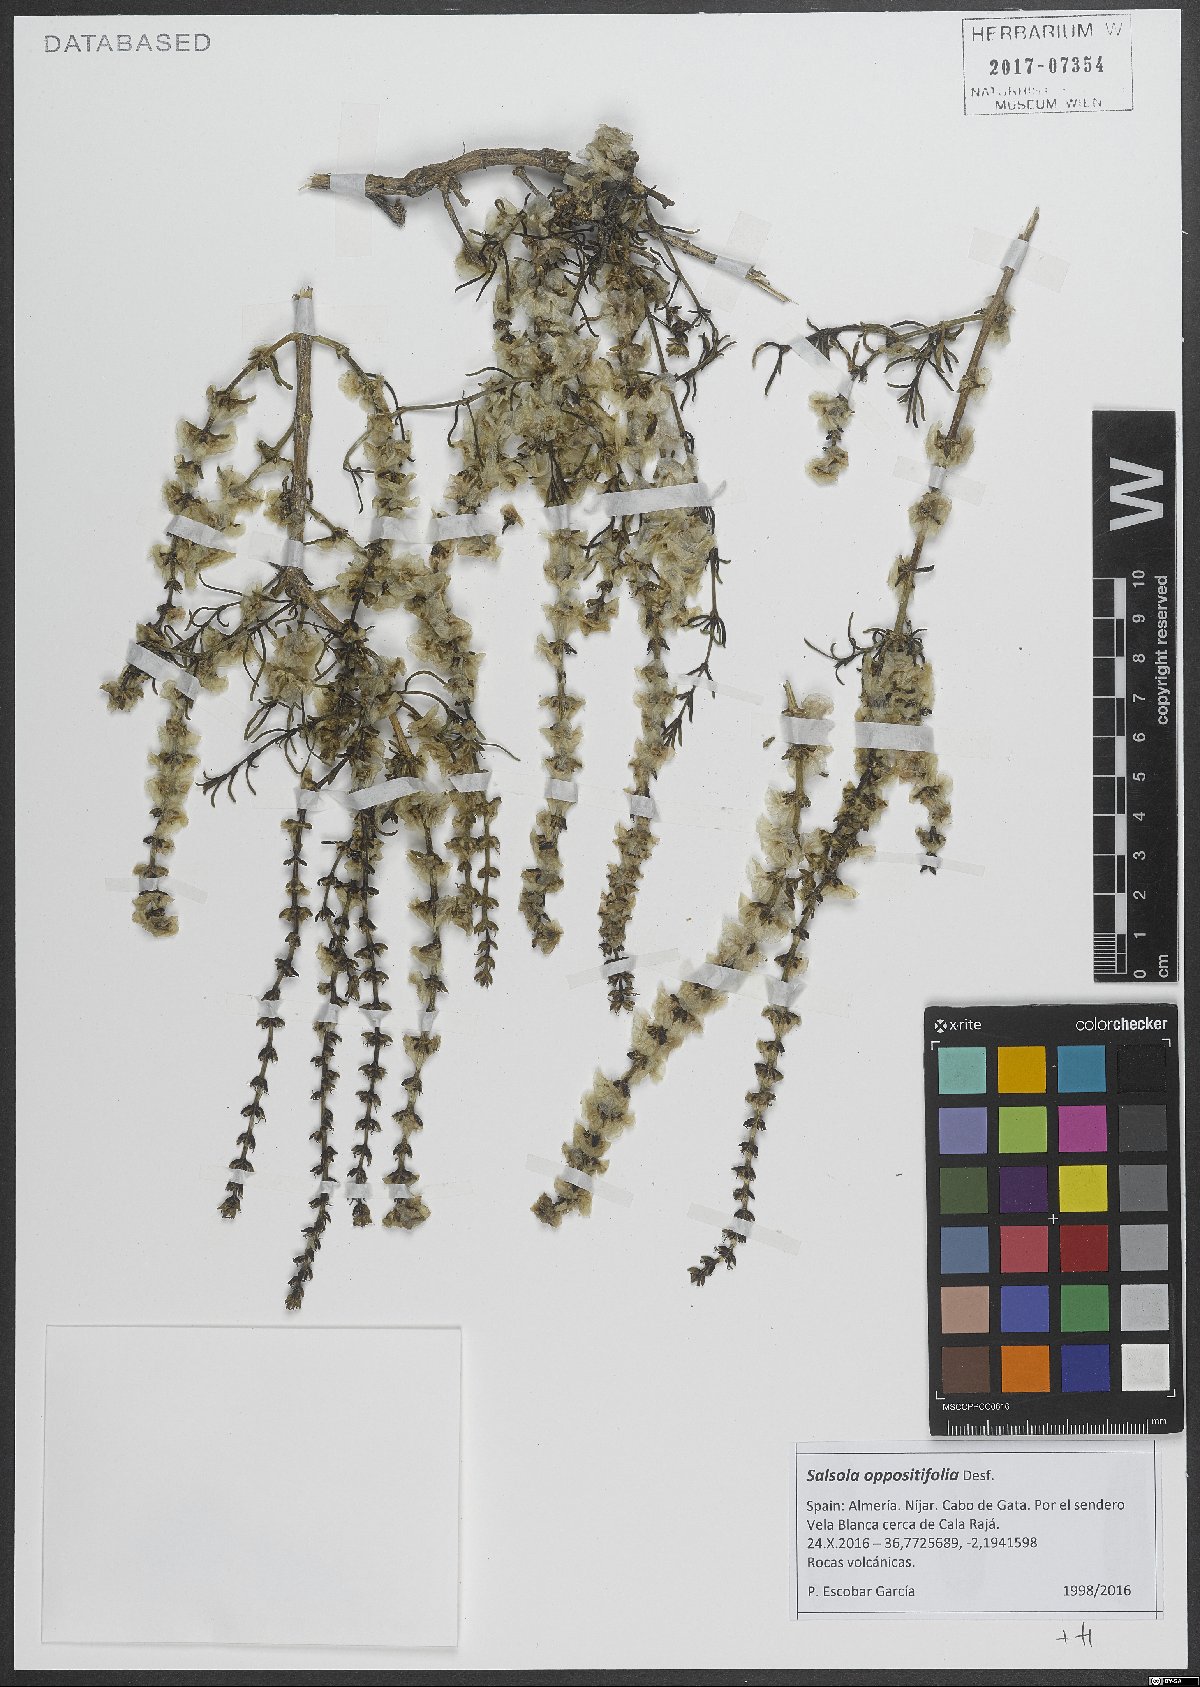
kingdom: Plantae
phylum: Tracheophyta
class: Magnoliopsida
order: Caryophyllales
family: Amaranthaceae
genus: Soda
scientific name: Soda oppositifolia
